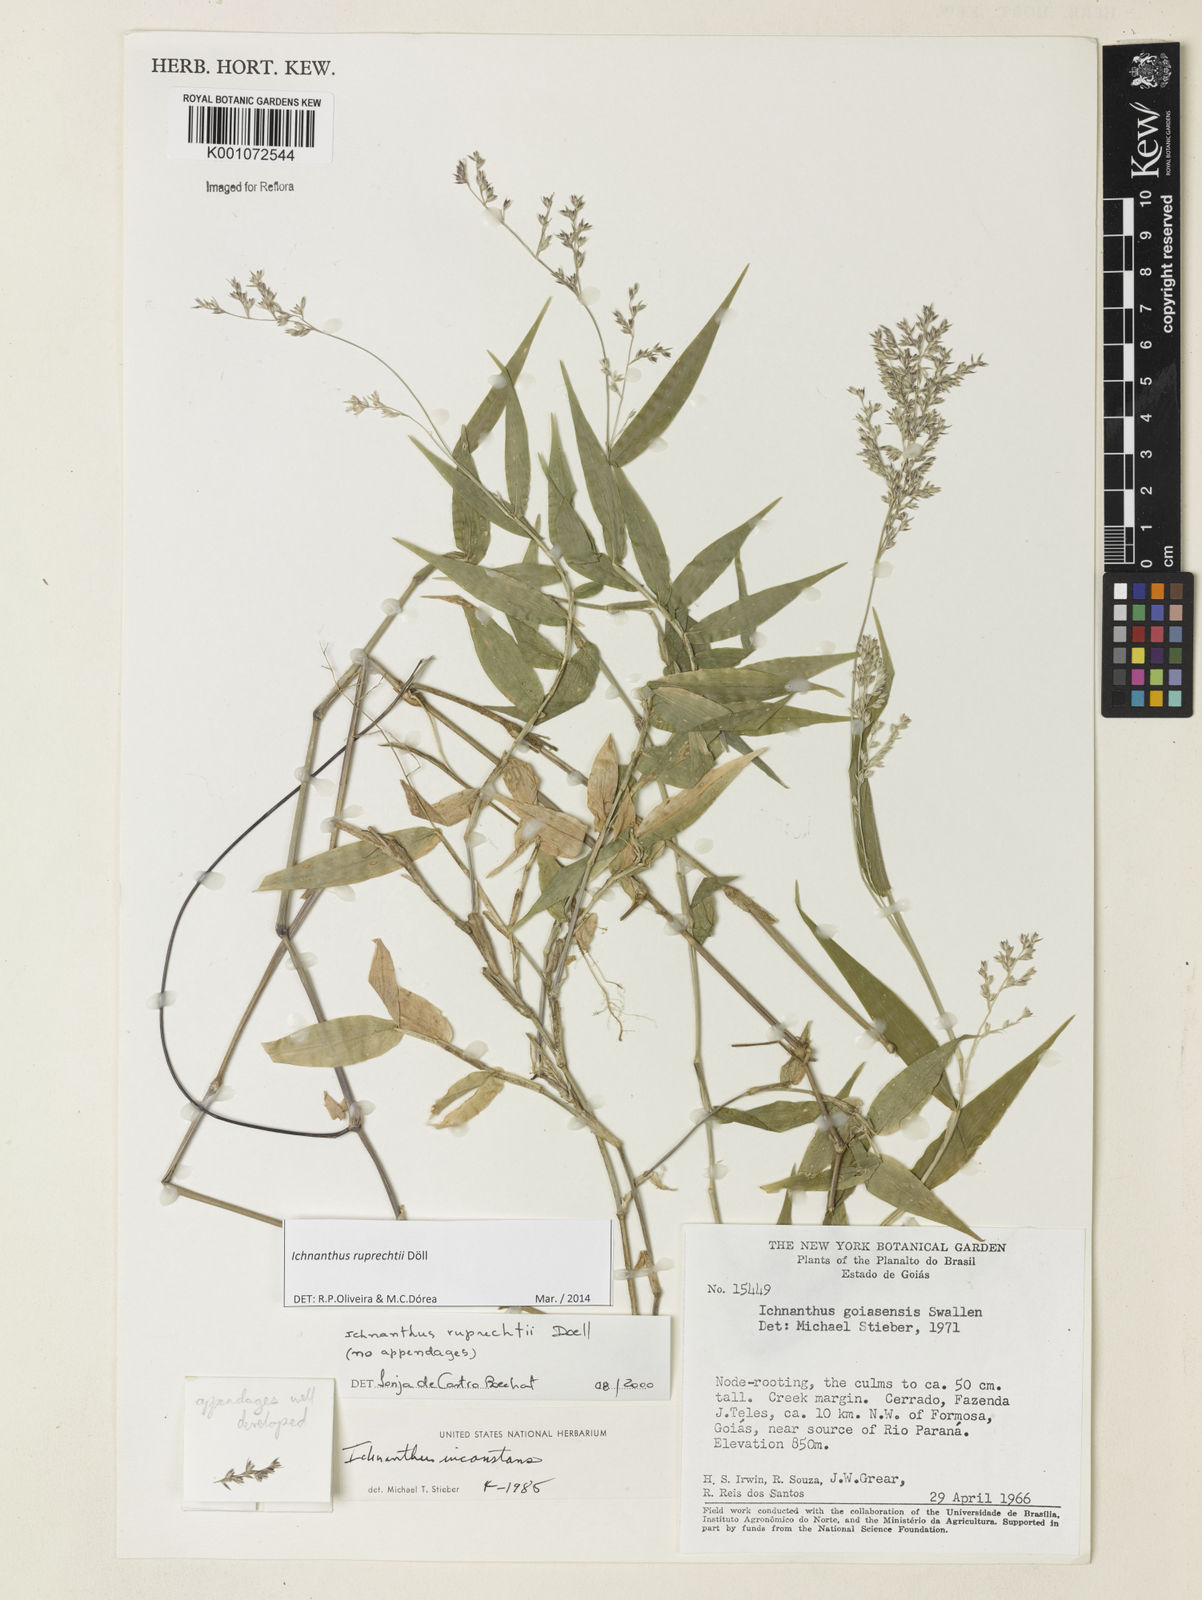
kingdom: Plantae
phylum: Tracheophyta
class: Liliopsida
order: Poales
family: Poaceae
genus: Ichnanthus
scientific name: Ichnanthus
